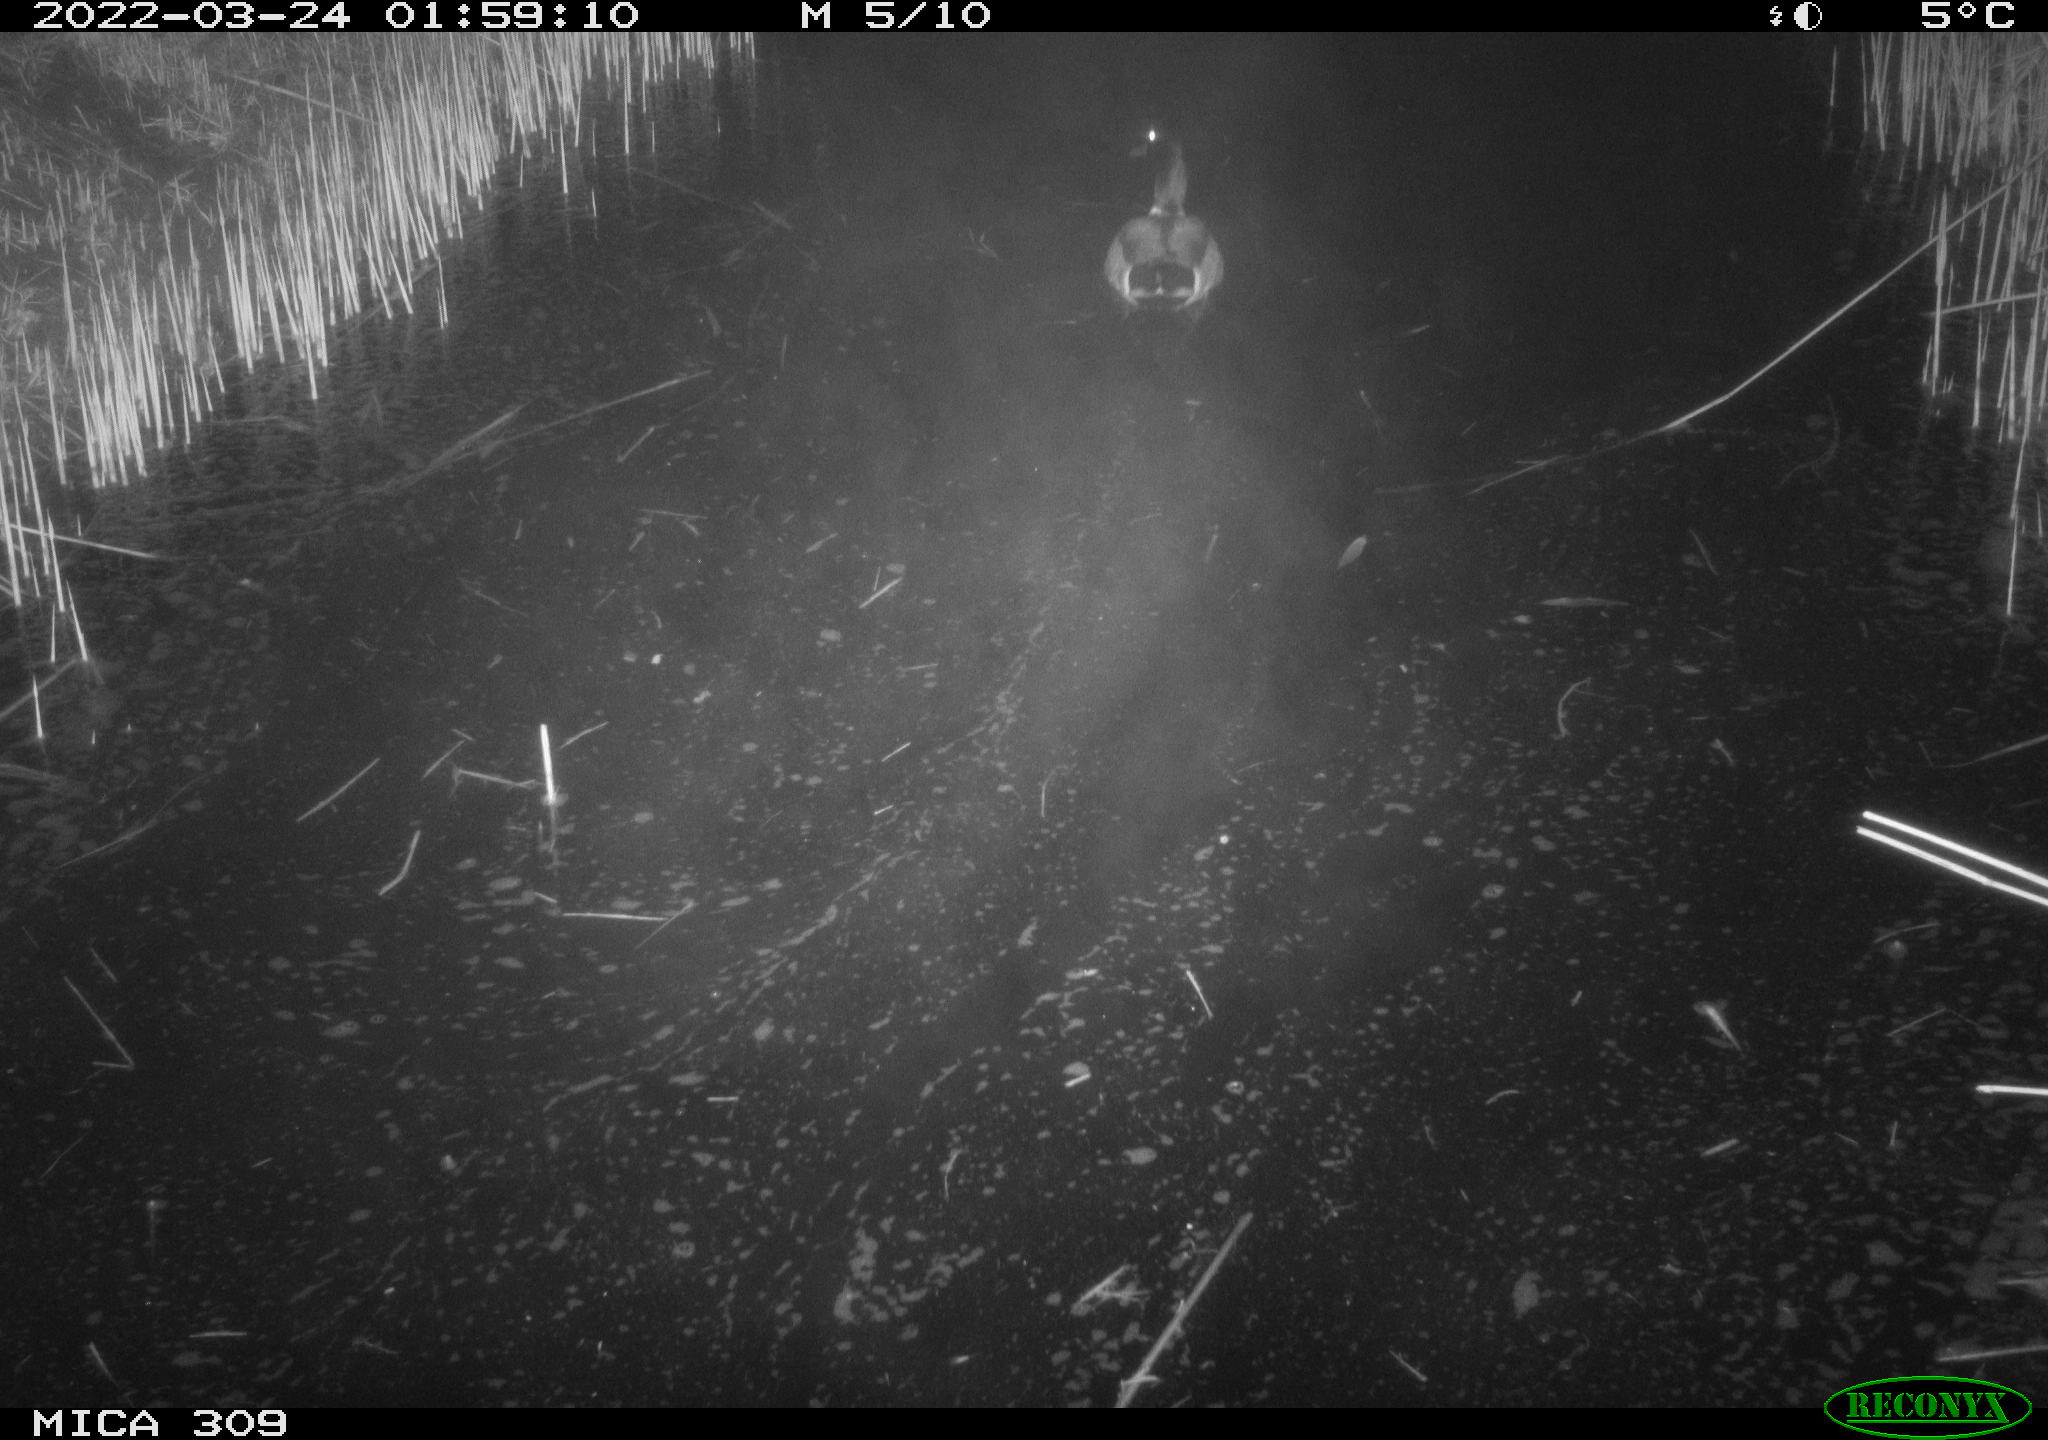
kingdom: Animalia
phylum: Chordata
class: Aves
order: Anseriformes
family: Anatidae
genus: Anas
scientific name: Anas platyrhynchos
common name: Mallard
